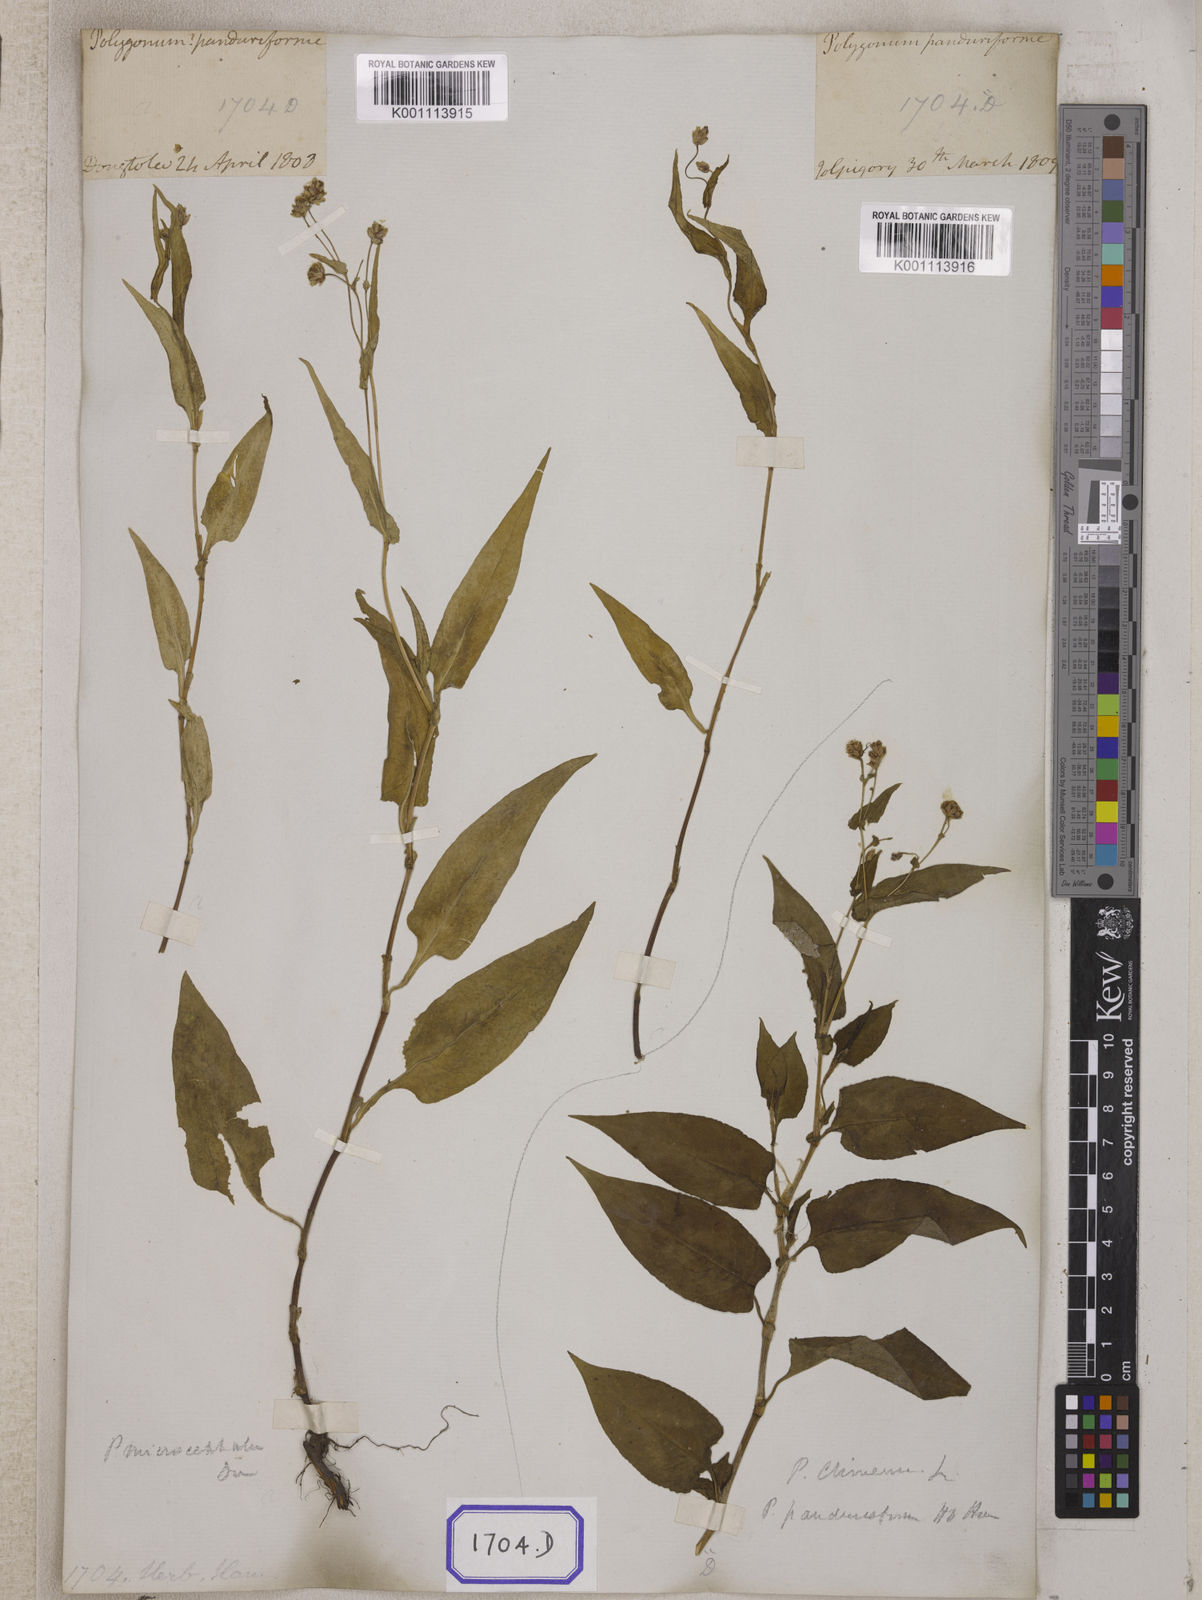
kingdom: Plantae
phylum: Tracheophyta
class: Magnoliopsida
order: Caryophyllales
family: Polygonaceae
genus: Persicaria
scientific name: Persicaria microcephala
